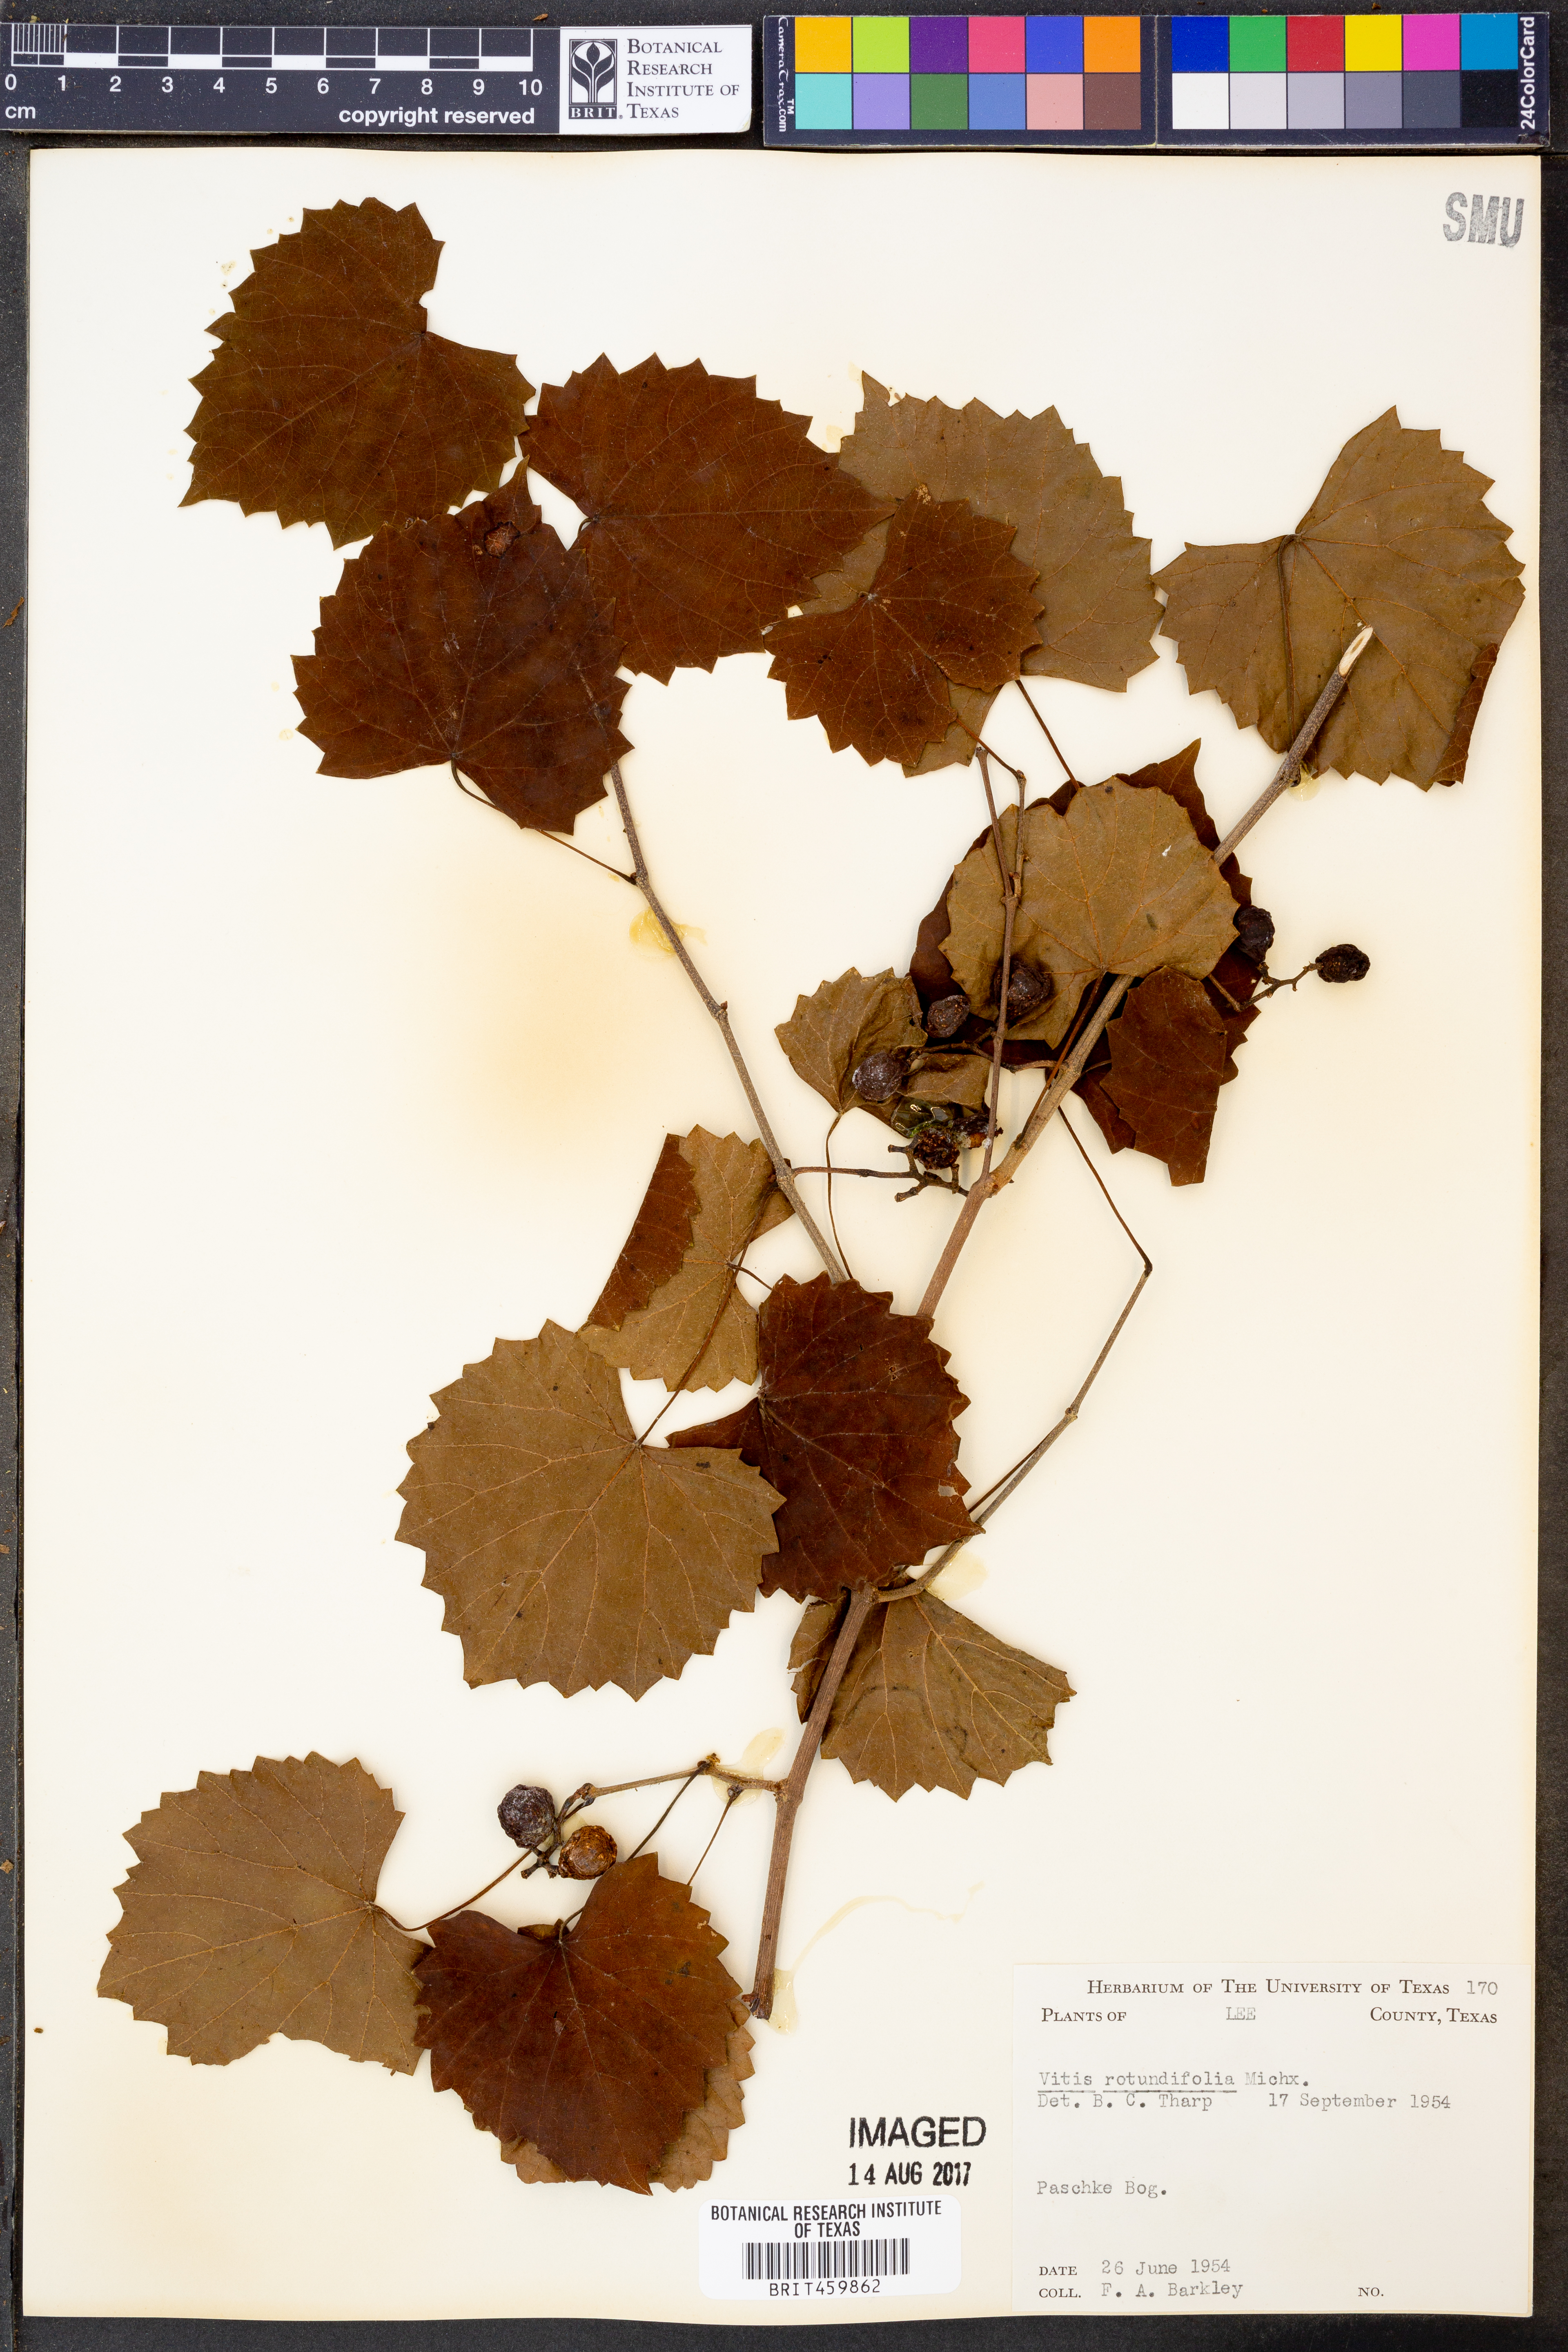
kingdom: Plantae
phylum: Tracheophyta
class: Magnoliopsida
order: Vitales
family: Vitaceae
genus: Vitis
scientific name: Vitis rotundifolia
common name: Muscadine grape
